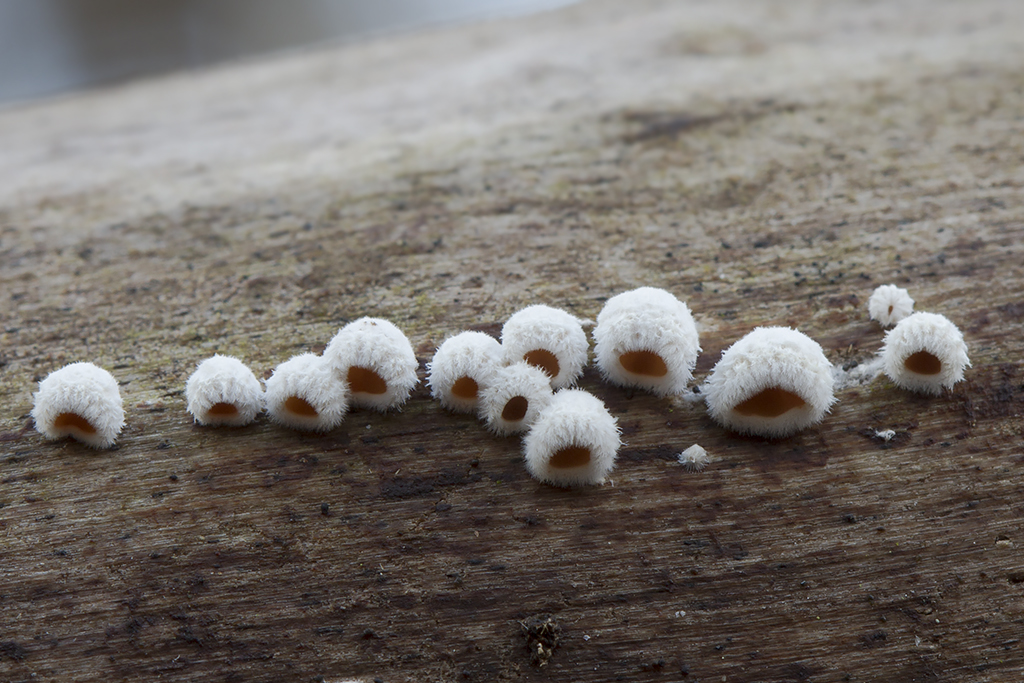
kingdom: Fungi
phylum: Basidiomycota
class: Agaricomycetes
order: Agaricales
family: Schizophyllaceae
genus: Schizophyllum
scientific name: Schizophyllum amplum
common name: poppel-hængeøre
